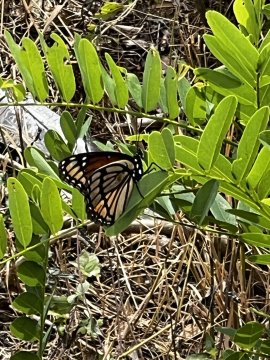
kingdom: Animalia
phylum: Arthropoda
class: Insecta
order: Lepidoptera
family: Nymphalidae
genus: Limenitis
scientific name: Limenitis archippus
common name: Viceroy
